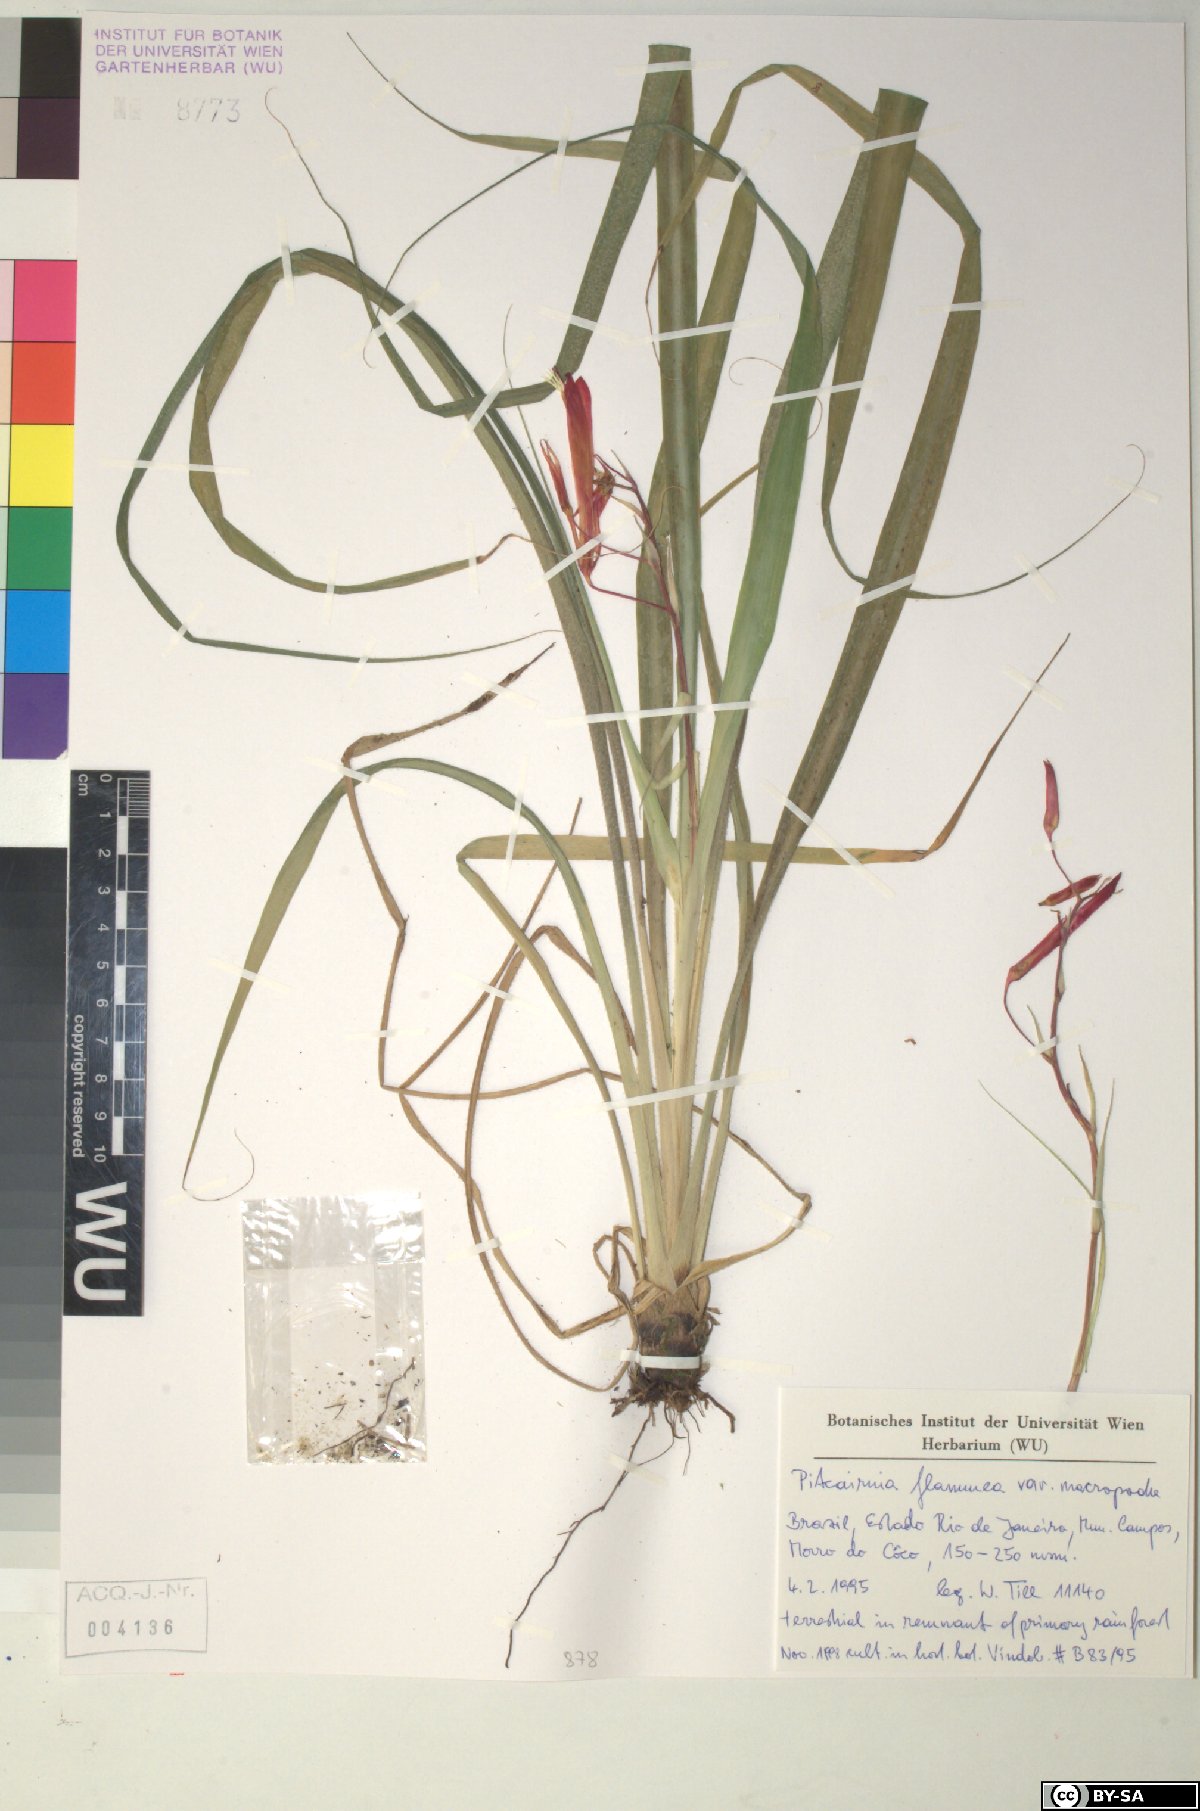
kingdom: Plantae
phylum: Tracheophyta
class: Liliopsida
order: Poales
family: Bromeliaceae
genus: Pitcairnia
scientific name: Pitcairnia flammea
